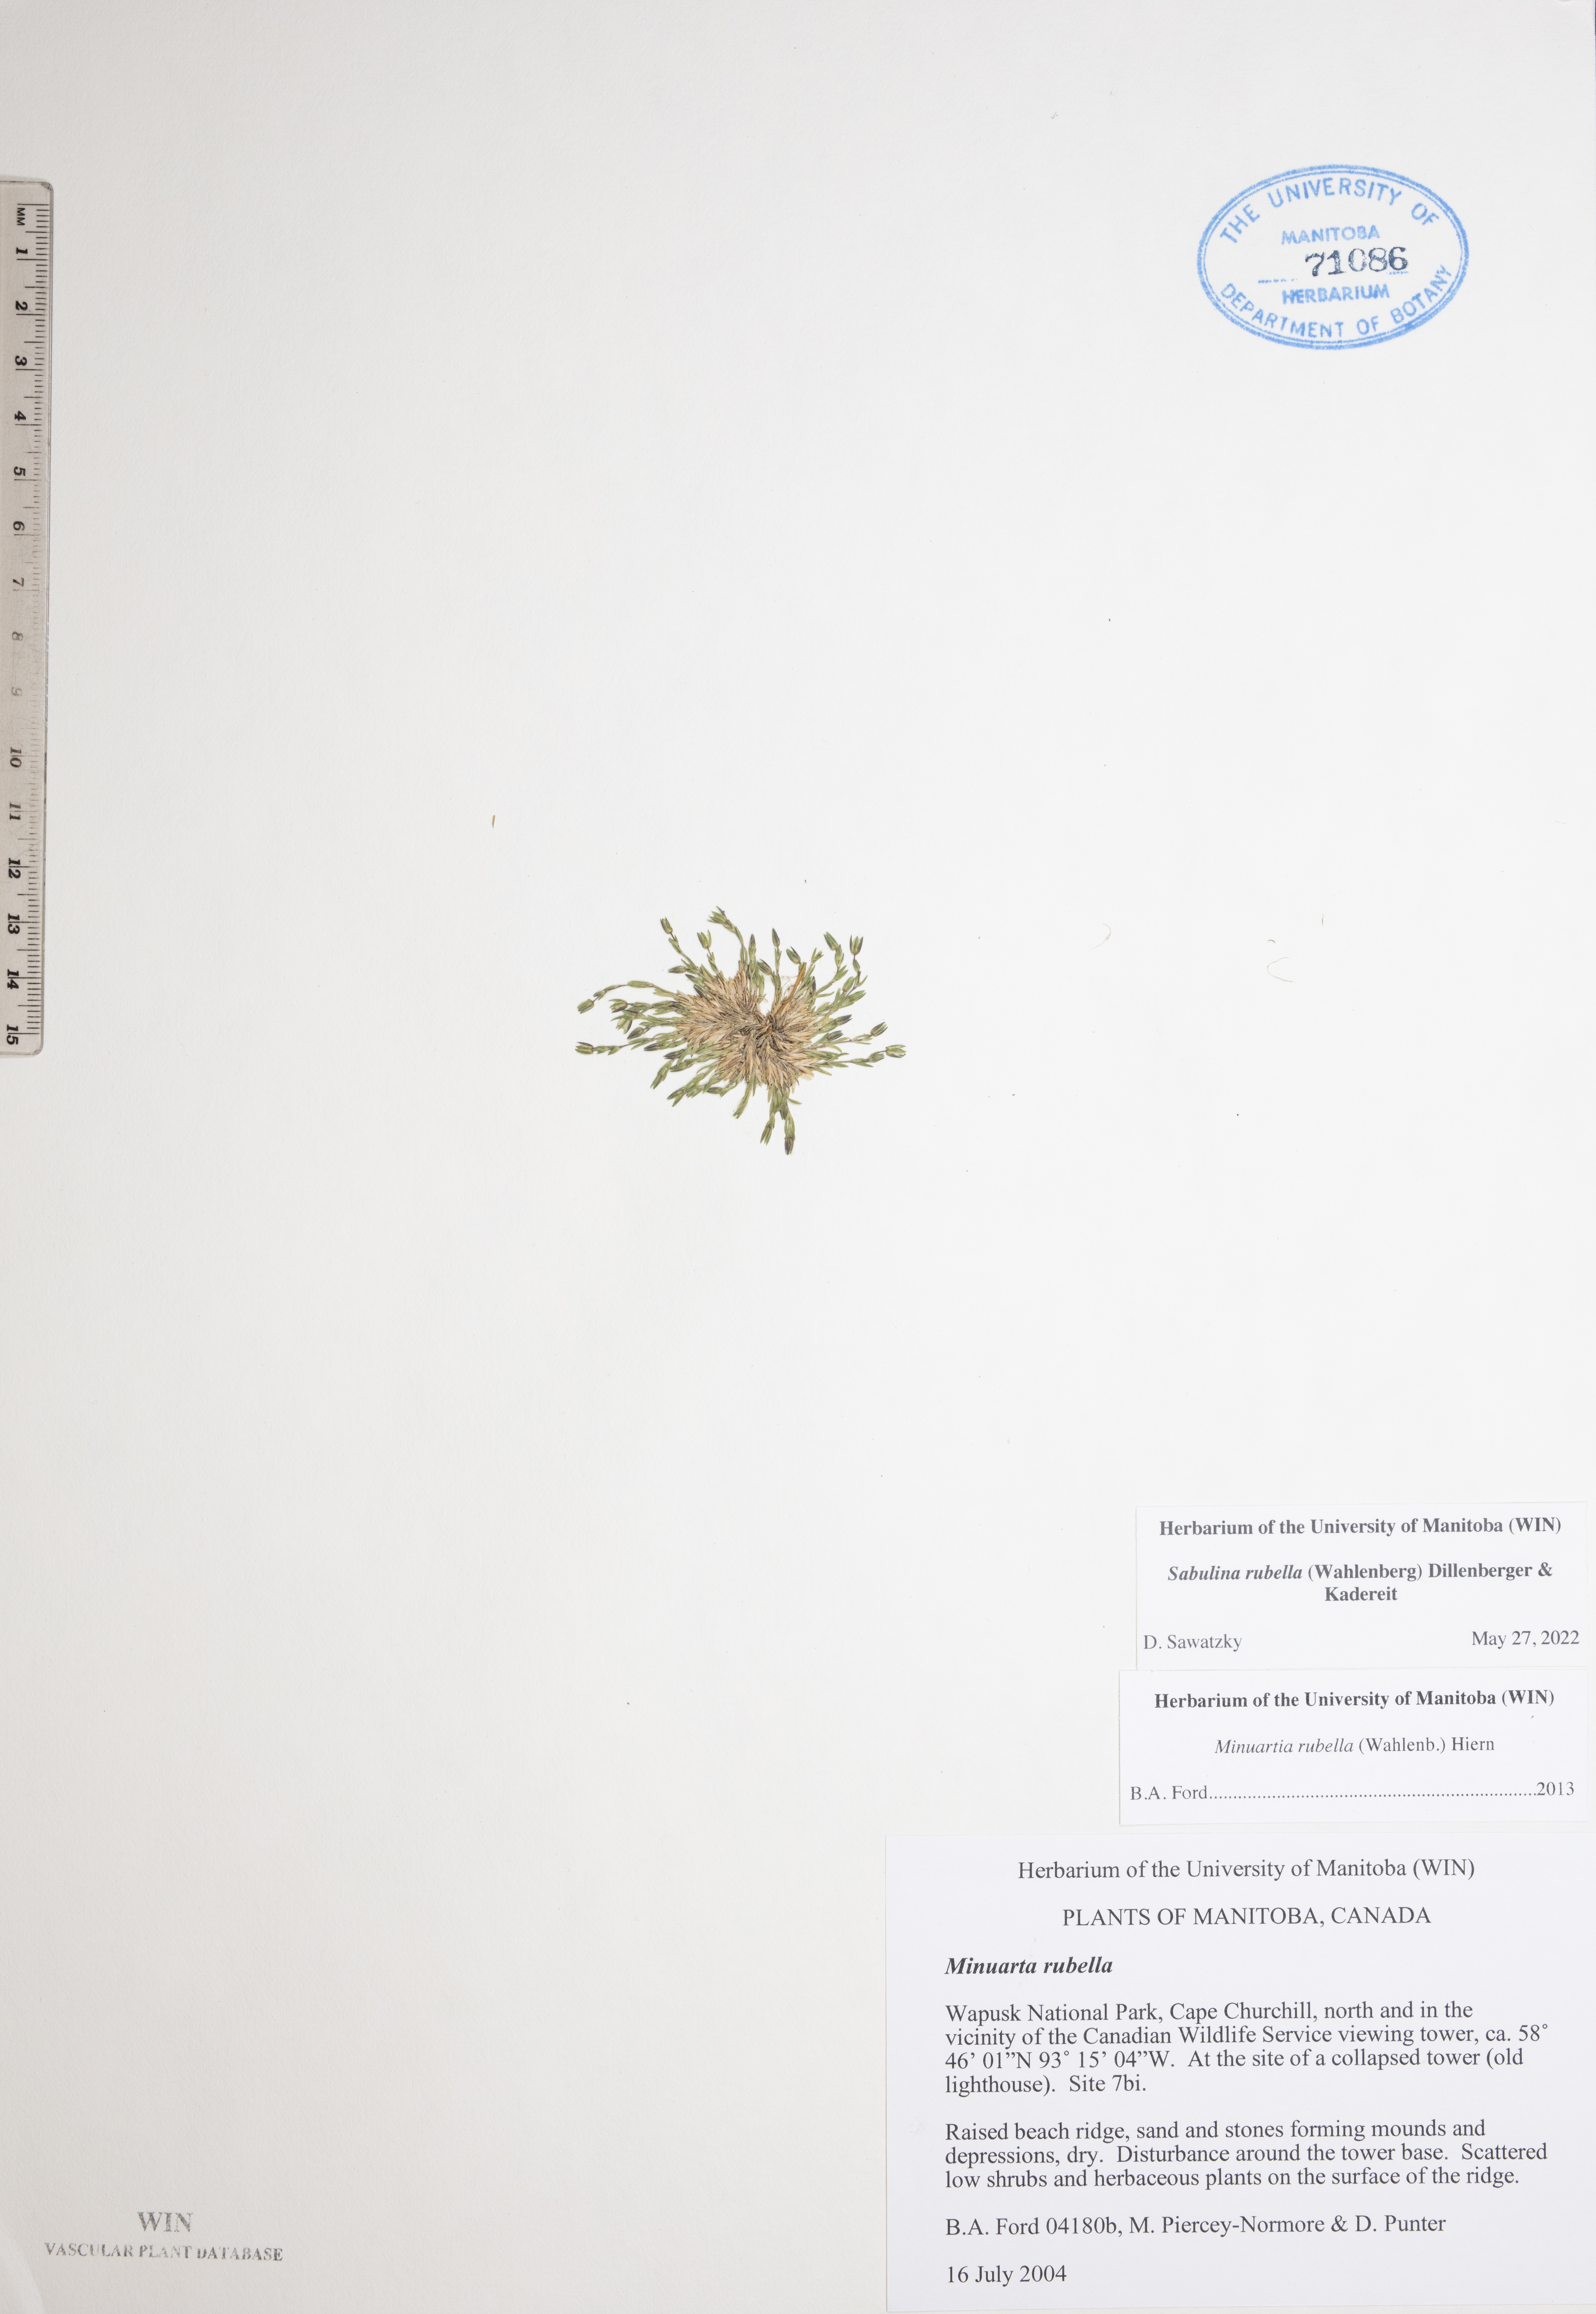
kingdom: Plantae
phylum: Tracheophyta
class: Magnoliopsida
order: Caryophyllales
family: Caryophyllaceae
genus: Sabulina
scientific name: Sabulina rubella
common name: Beautiful sandwort
